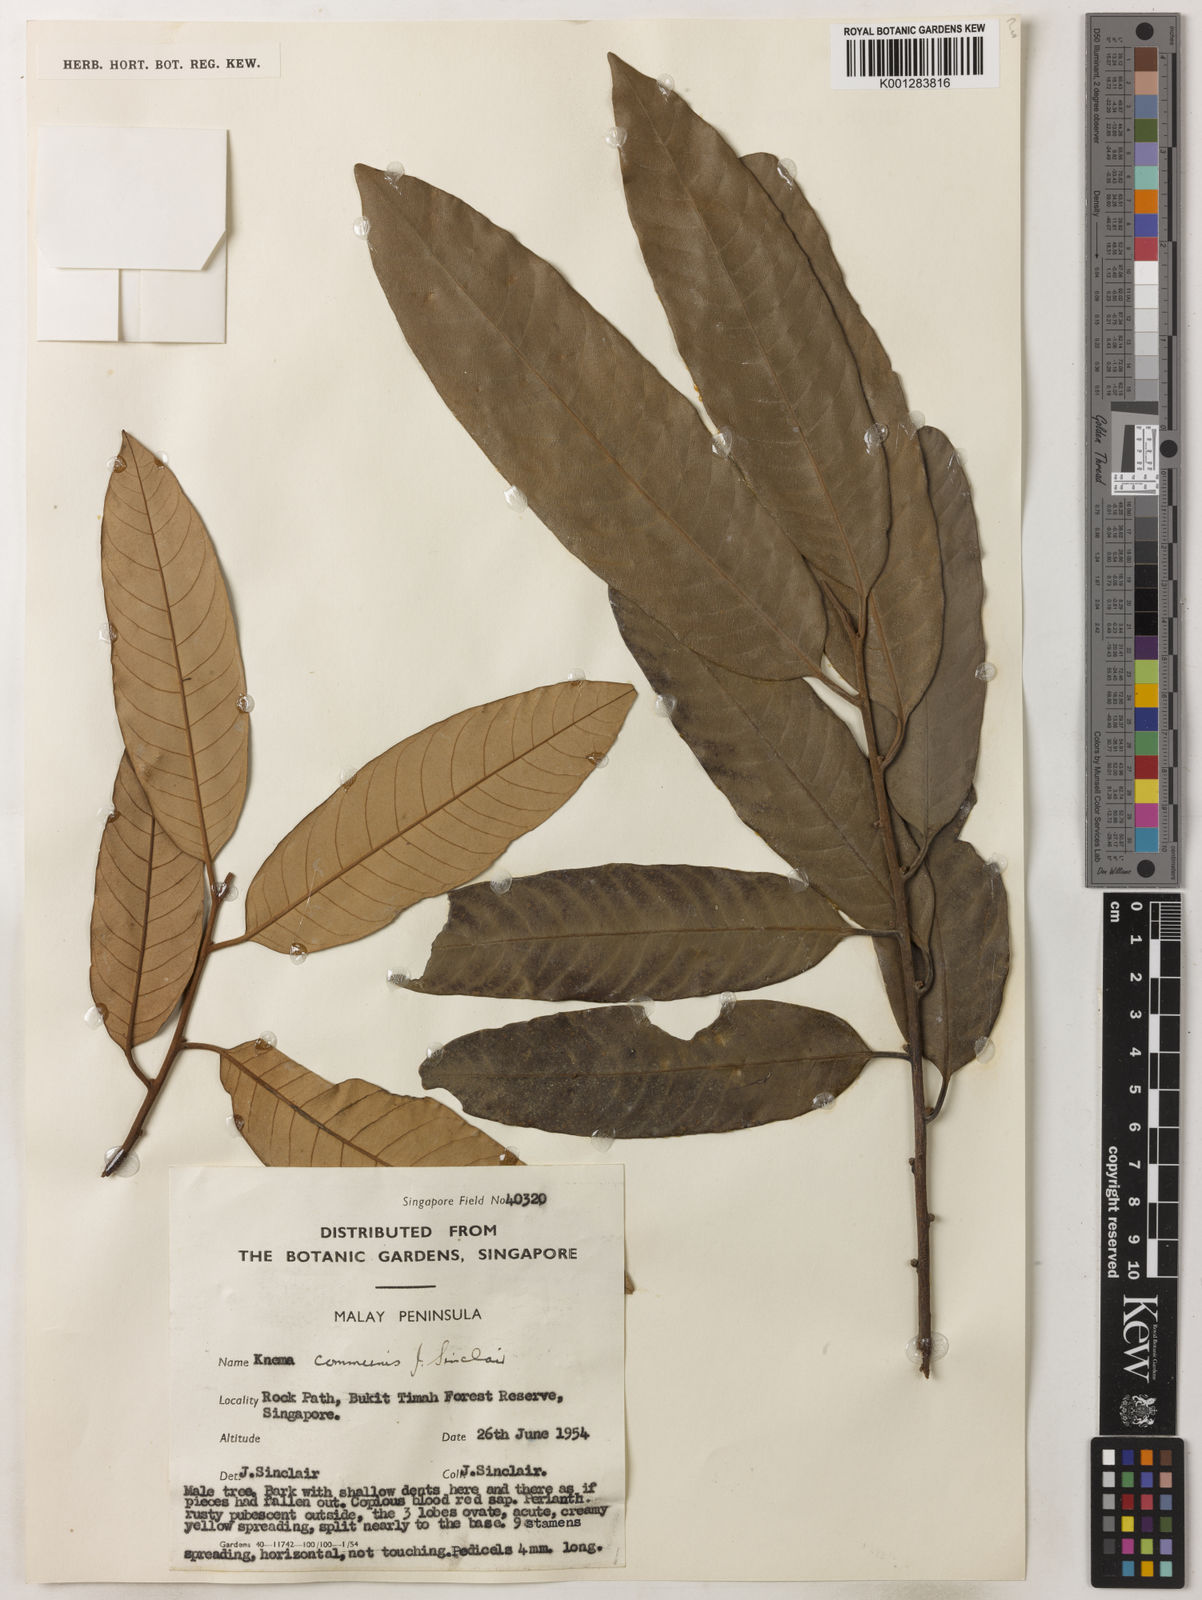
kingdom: Plantae
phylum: Tracheophyta
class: Magnoliopsida
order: Magnoliales
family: Myristicaceae
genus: Knema
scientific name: Knema communis
